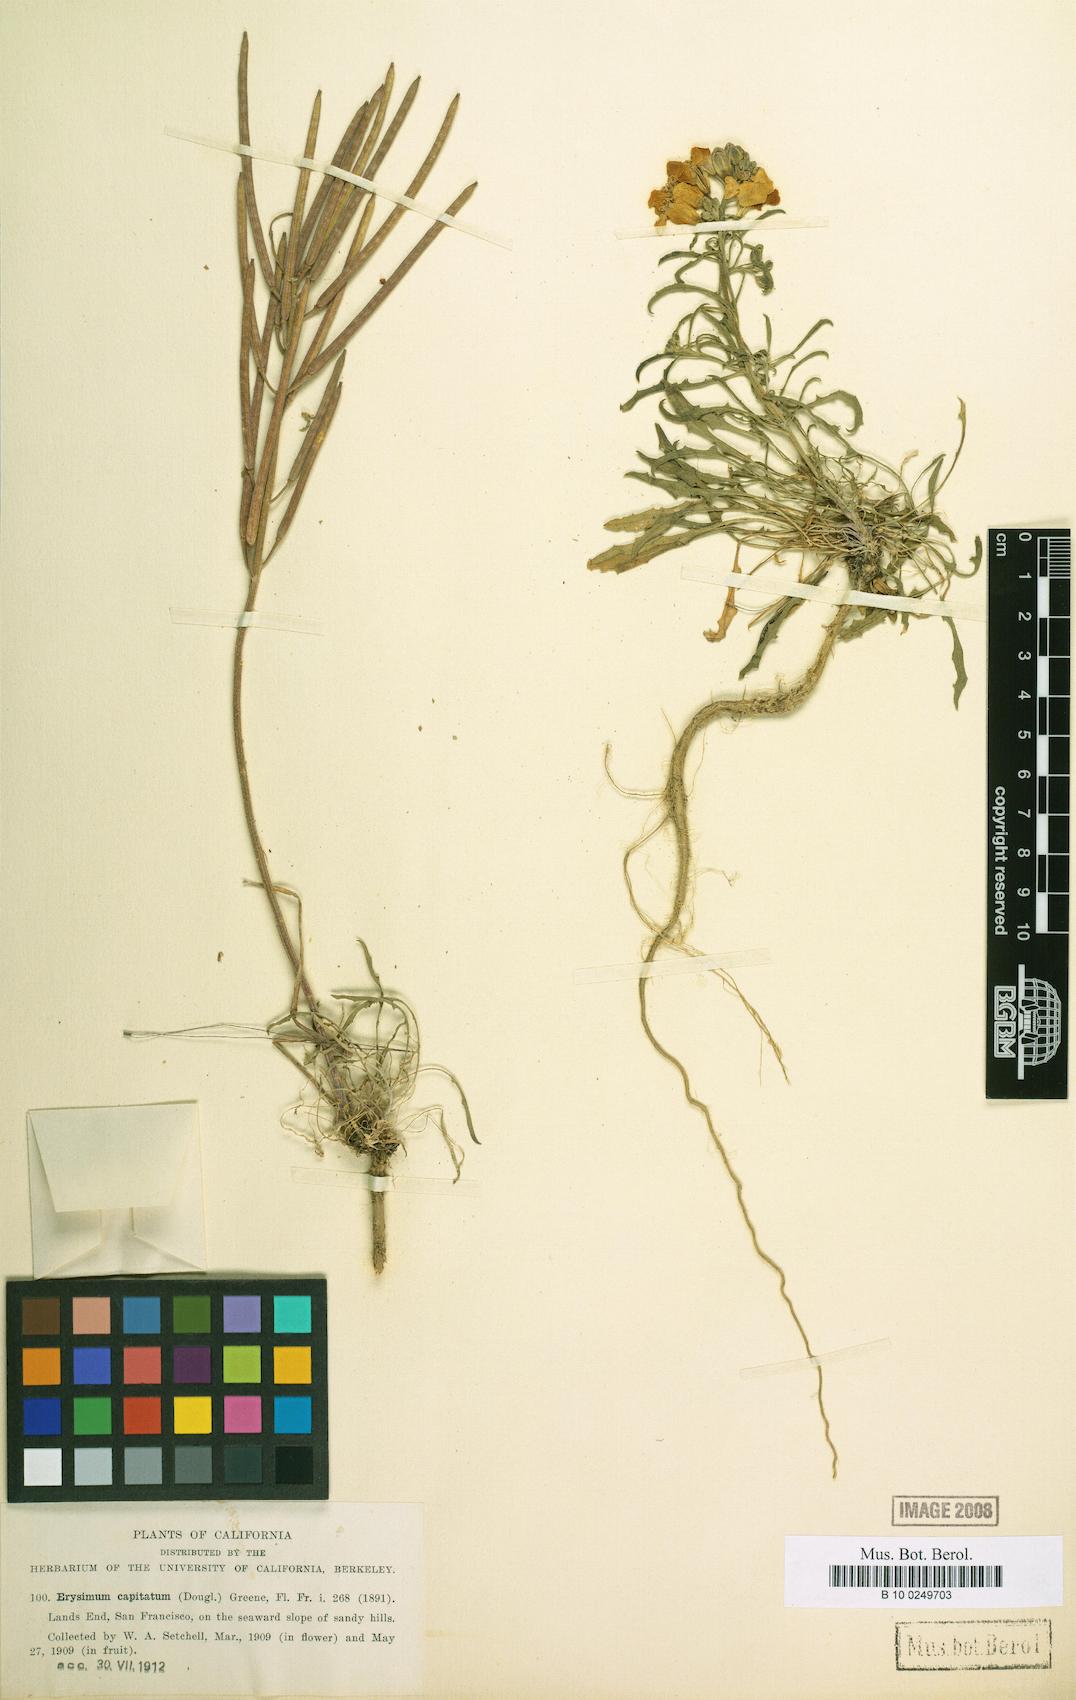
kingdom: Plantae
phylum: Tracheophyta
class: Magnoliopsida
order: Brassicales
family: Brassicaceae
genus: Erysimum
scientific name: Erysimum capitatum
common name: Western wallflower
